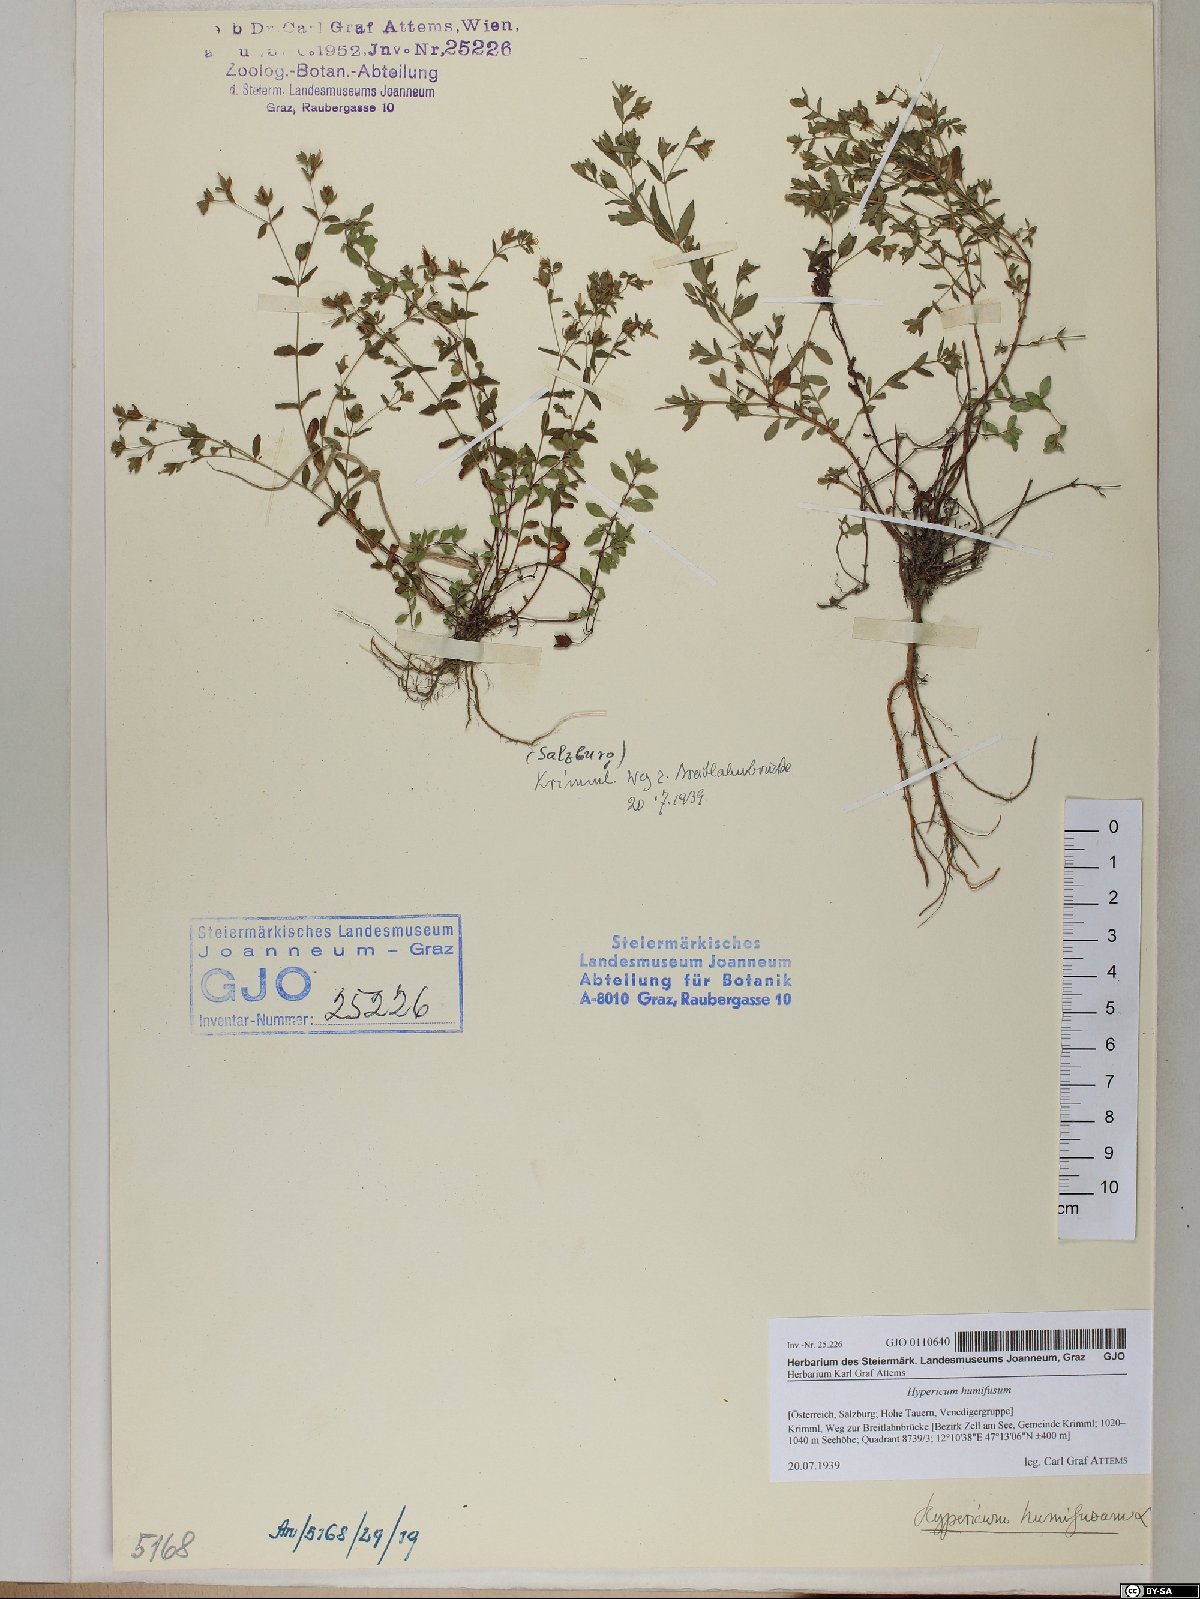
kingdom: Plantae
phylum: Tracheophyta
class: Magnoliopsida
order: Malpighiales
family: Hypericaceae
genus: Hypericum
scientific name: Hypericum humifusum
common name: Trailing st. john's-wort
